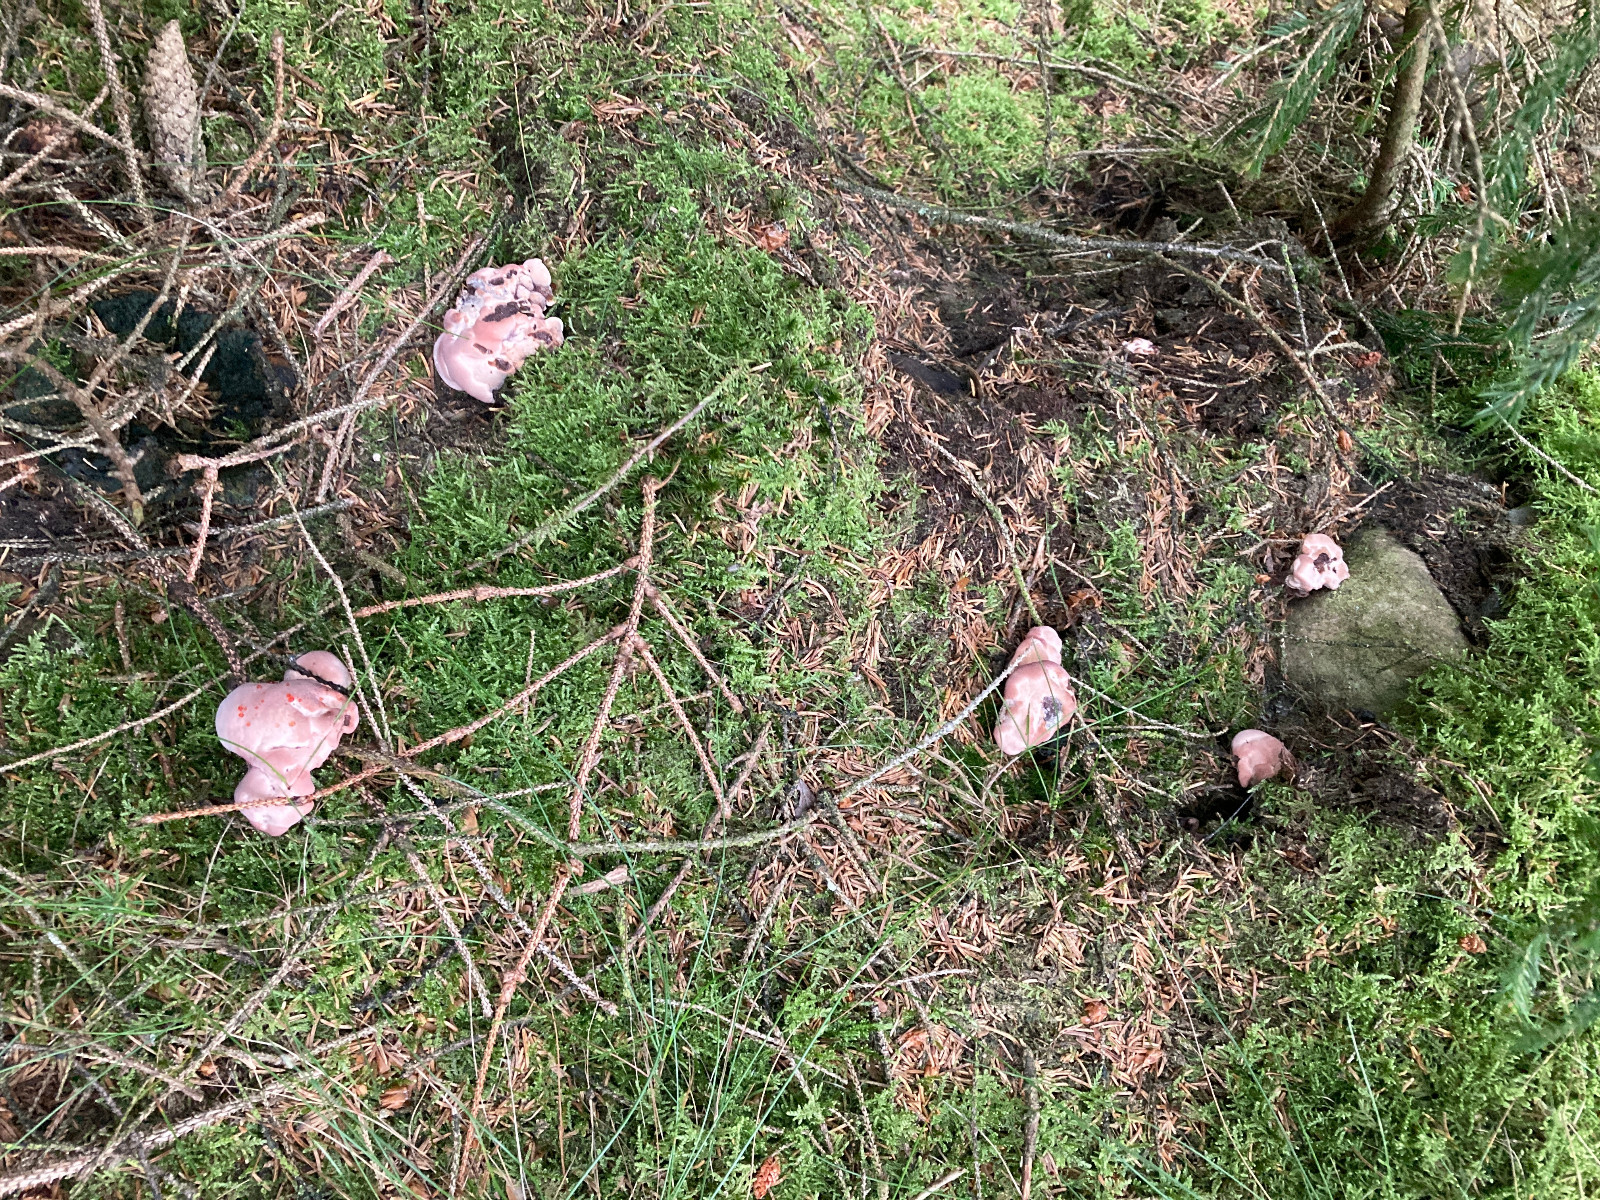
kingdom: Fungi
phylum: Basidiomycota
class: Agaricomycetes
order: Thelephorales
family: Bankeraceae
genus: Hydnellum
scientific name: Hydnellum ferrugineum
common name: rust-korkpigsvamp
